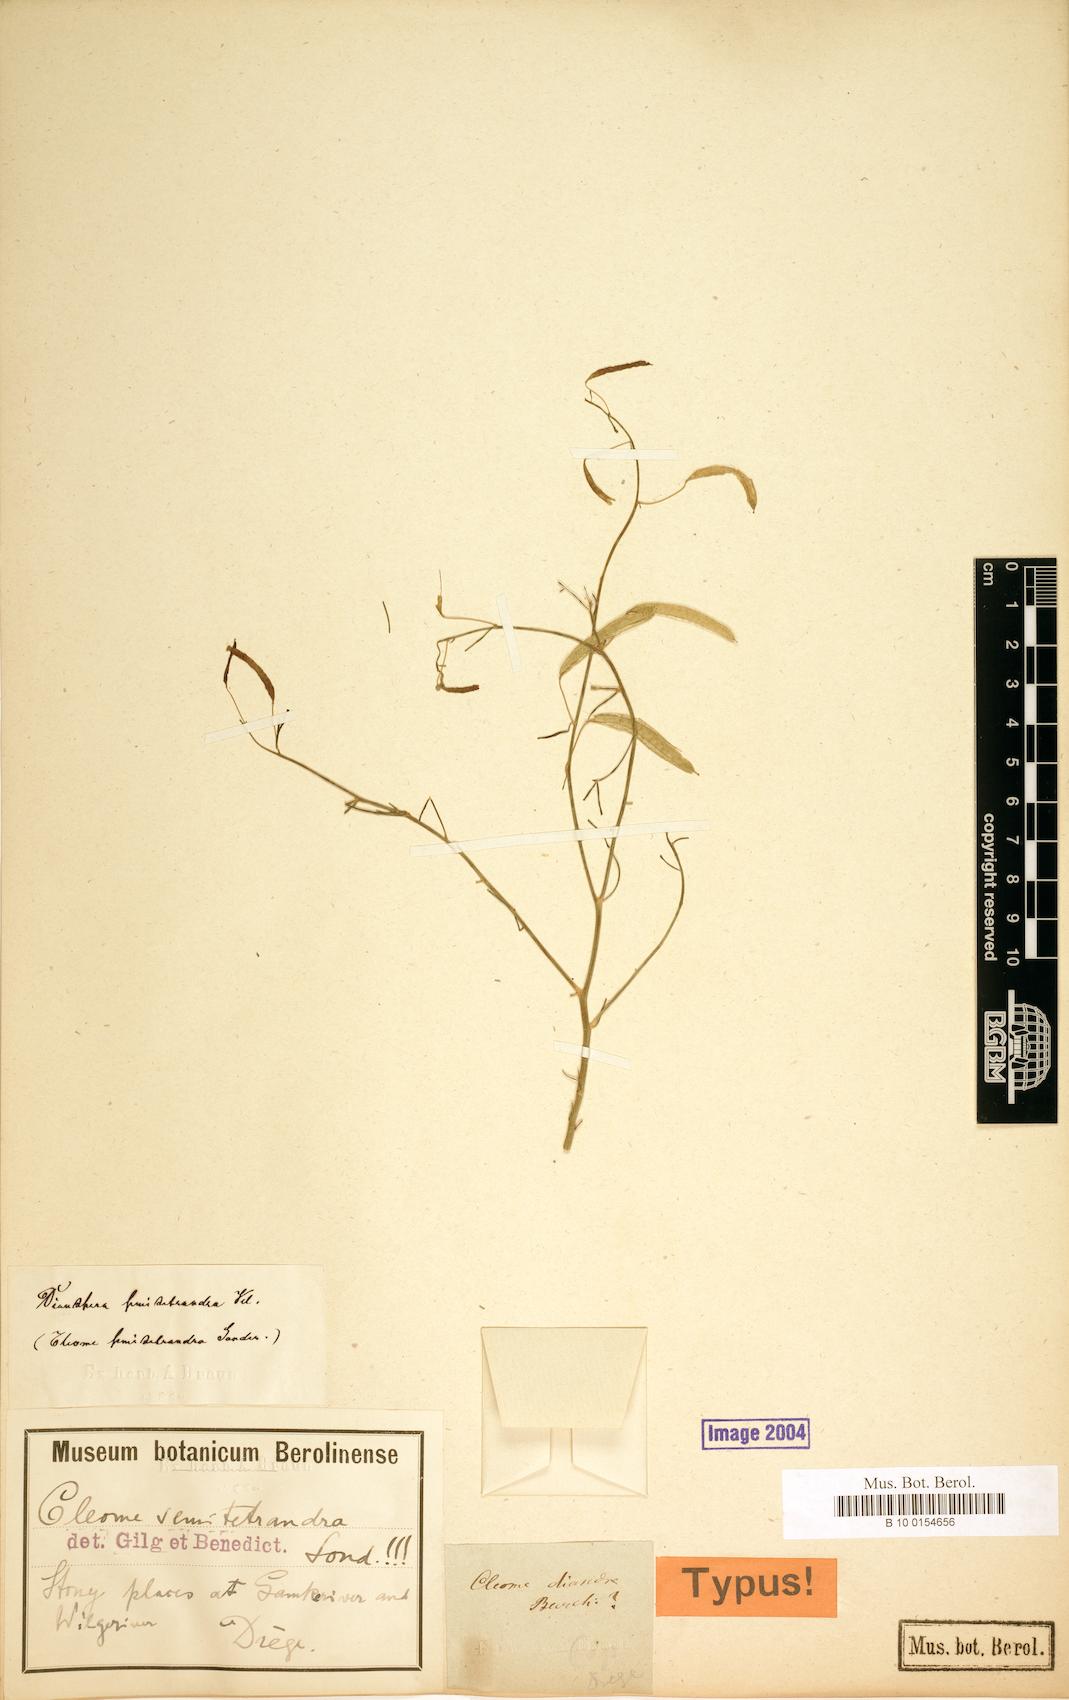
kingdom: Plantae
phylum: Tracheophyta
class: Magnoliopsida
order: Brassicales
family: Cleomaceae
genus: Coalisina
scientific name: Coalisina semitetrandra
